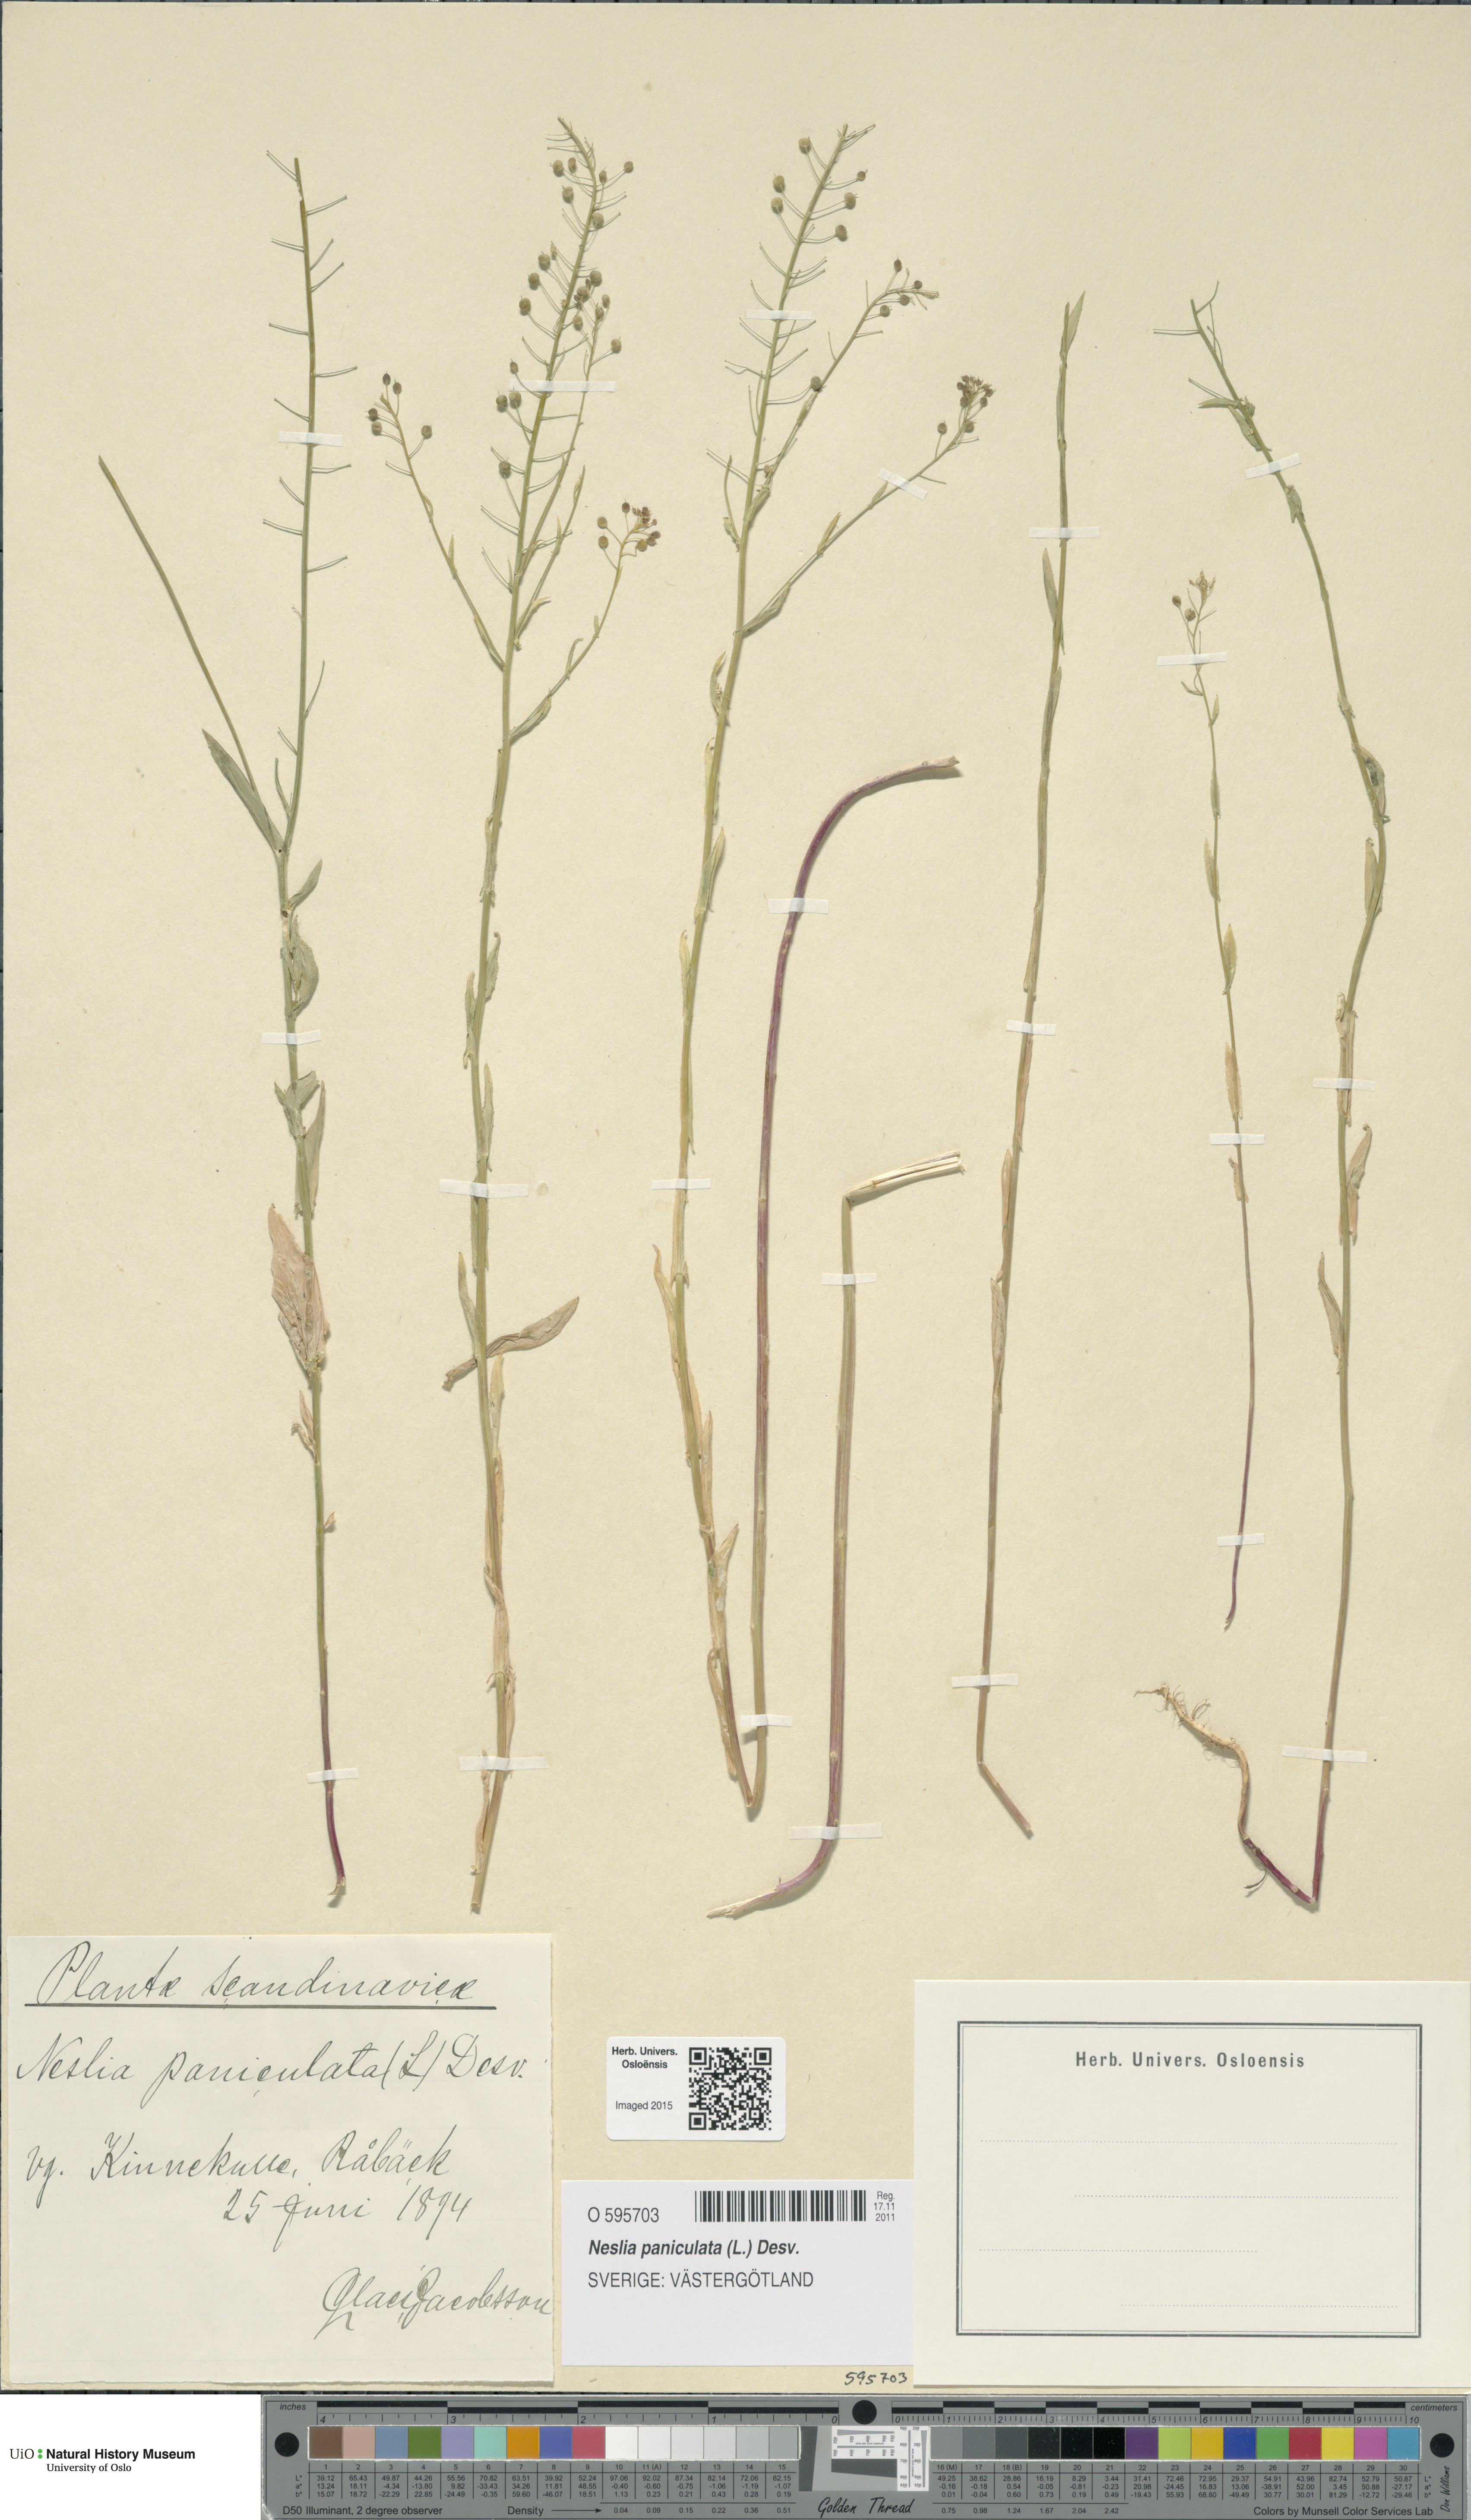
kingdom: Plantae
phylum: Tracheophyta
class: Magnoliopsida
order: Brassicales
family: Brassicaceae
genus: Neslia
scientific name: Neslia paniculata
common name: Ball mustard
